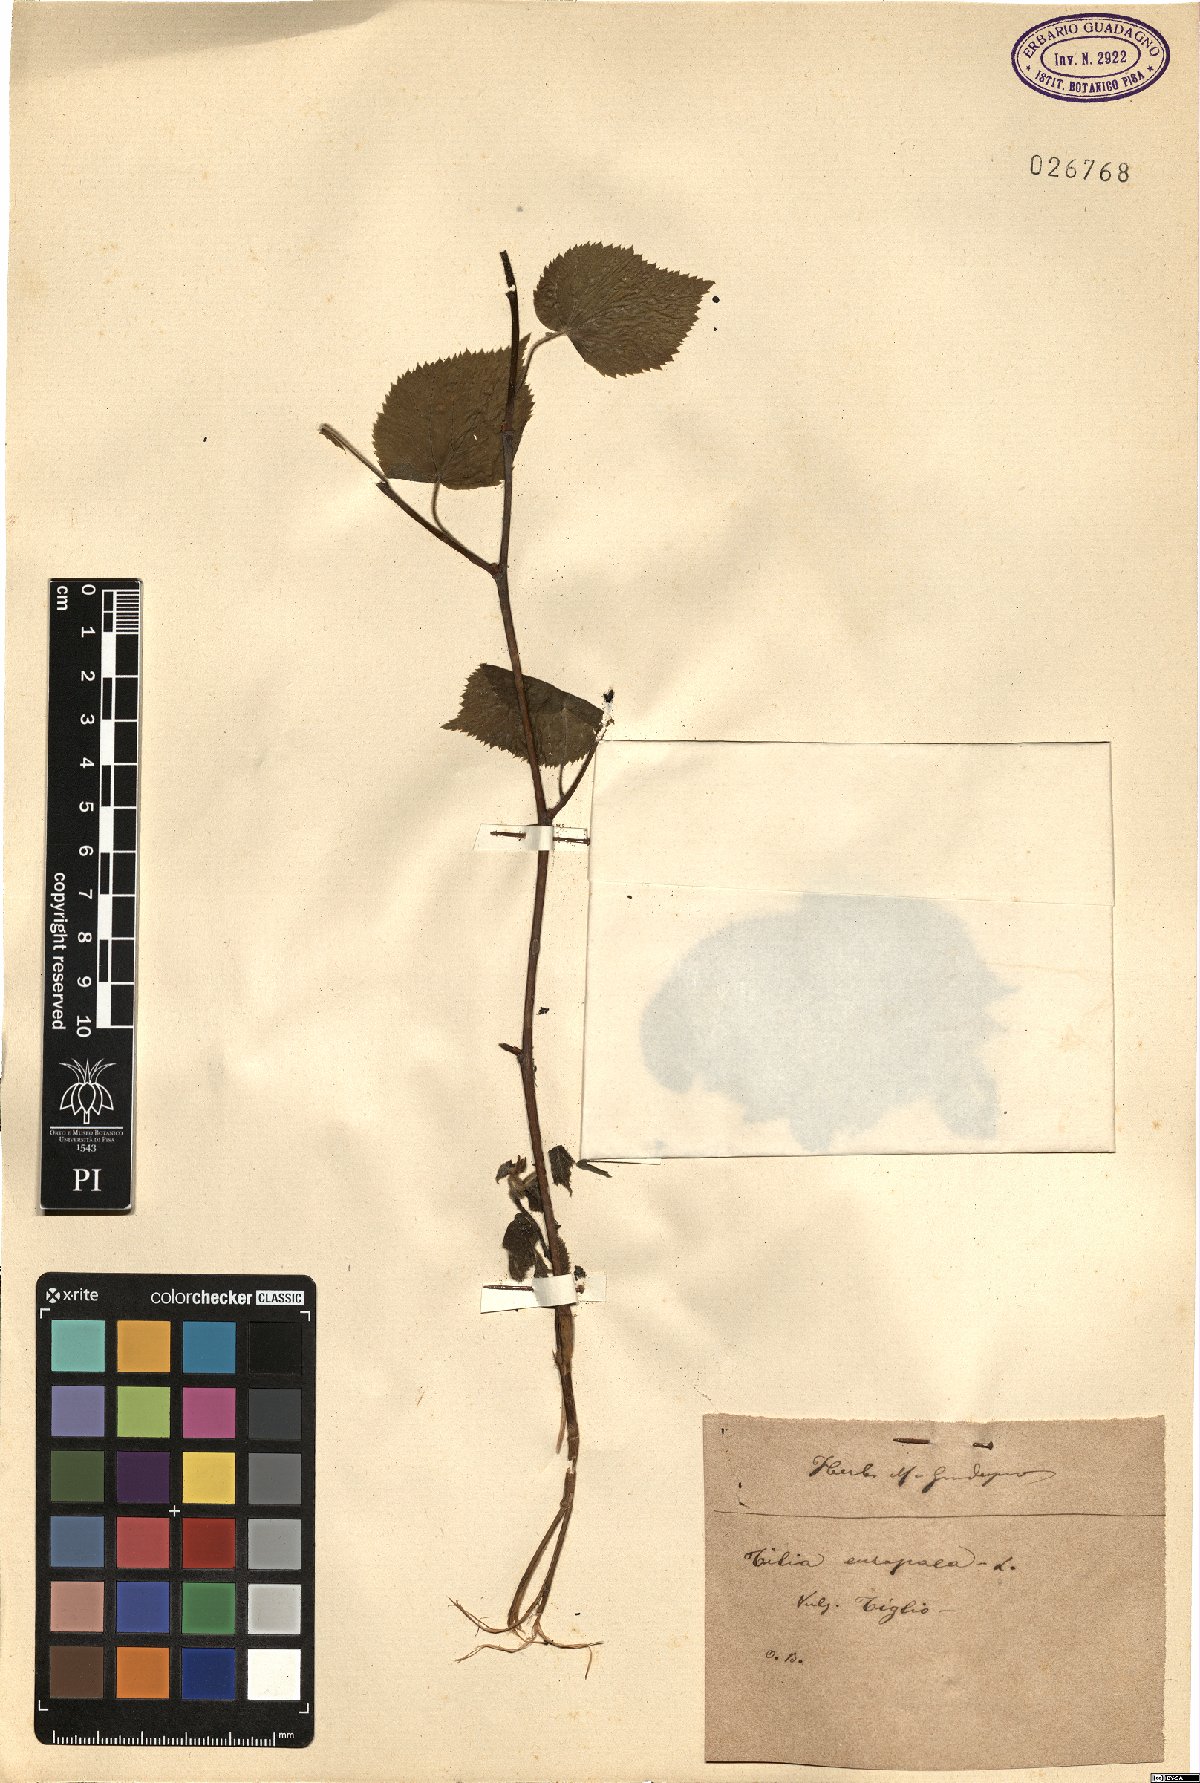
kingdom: Plantae
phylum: Tracheophyta
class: Magnoliopsida
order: Malvales
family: Malvaceae
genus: Tilia
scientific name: Tilia europaea
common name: European linden
